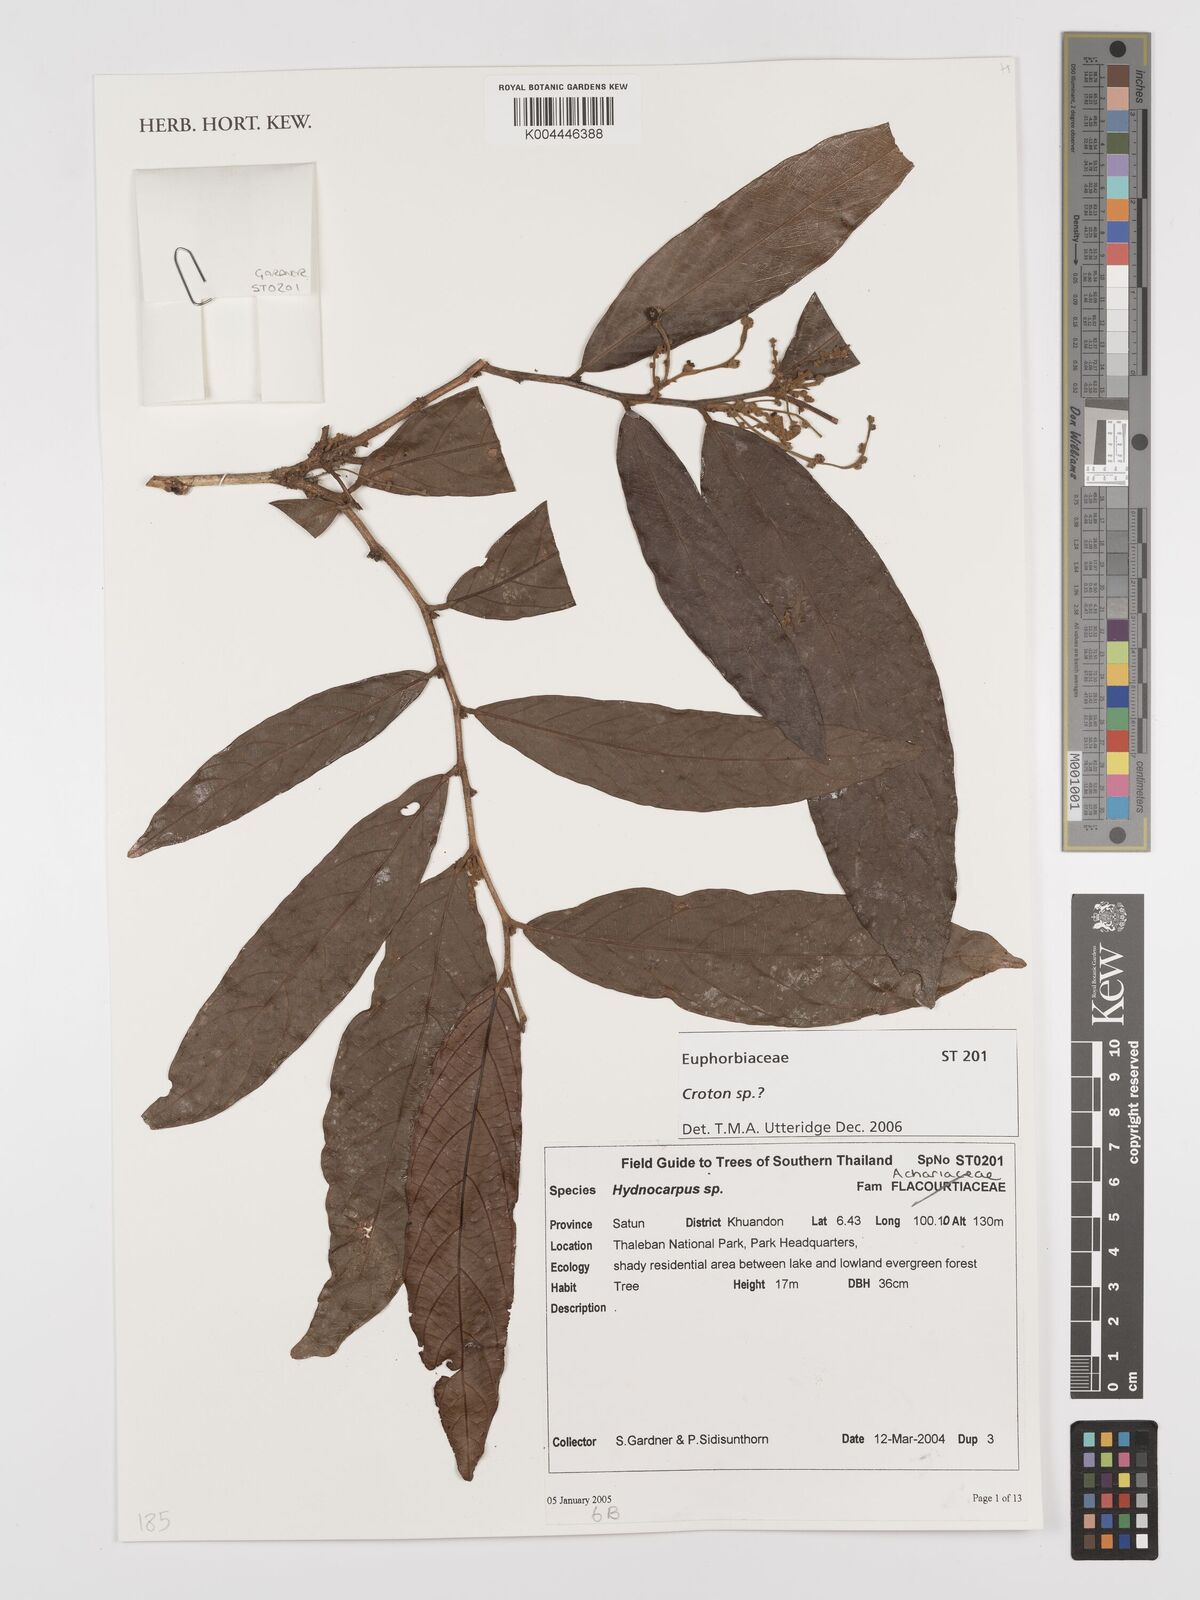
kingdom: Plantae
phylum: Tracheophyta
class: Magnoliopsida
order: Malpighiales
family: Euphorbiaceae
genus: Croton
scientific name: Croton
